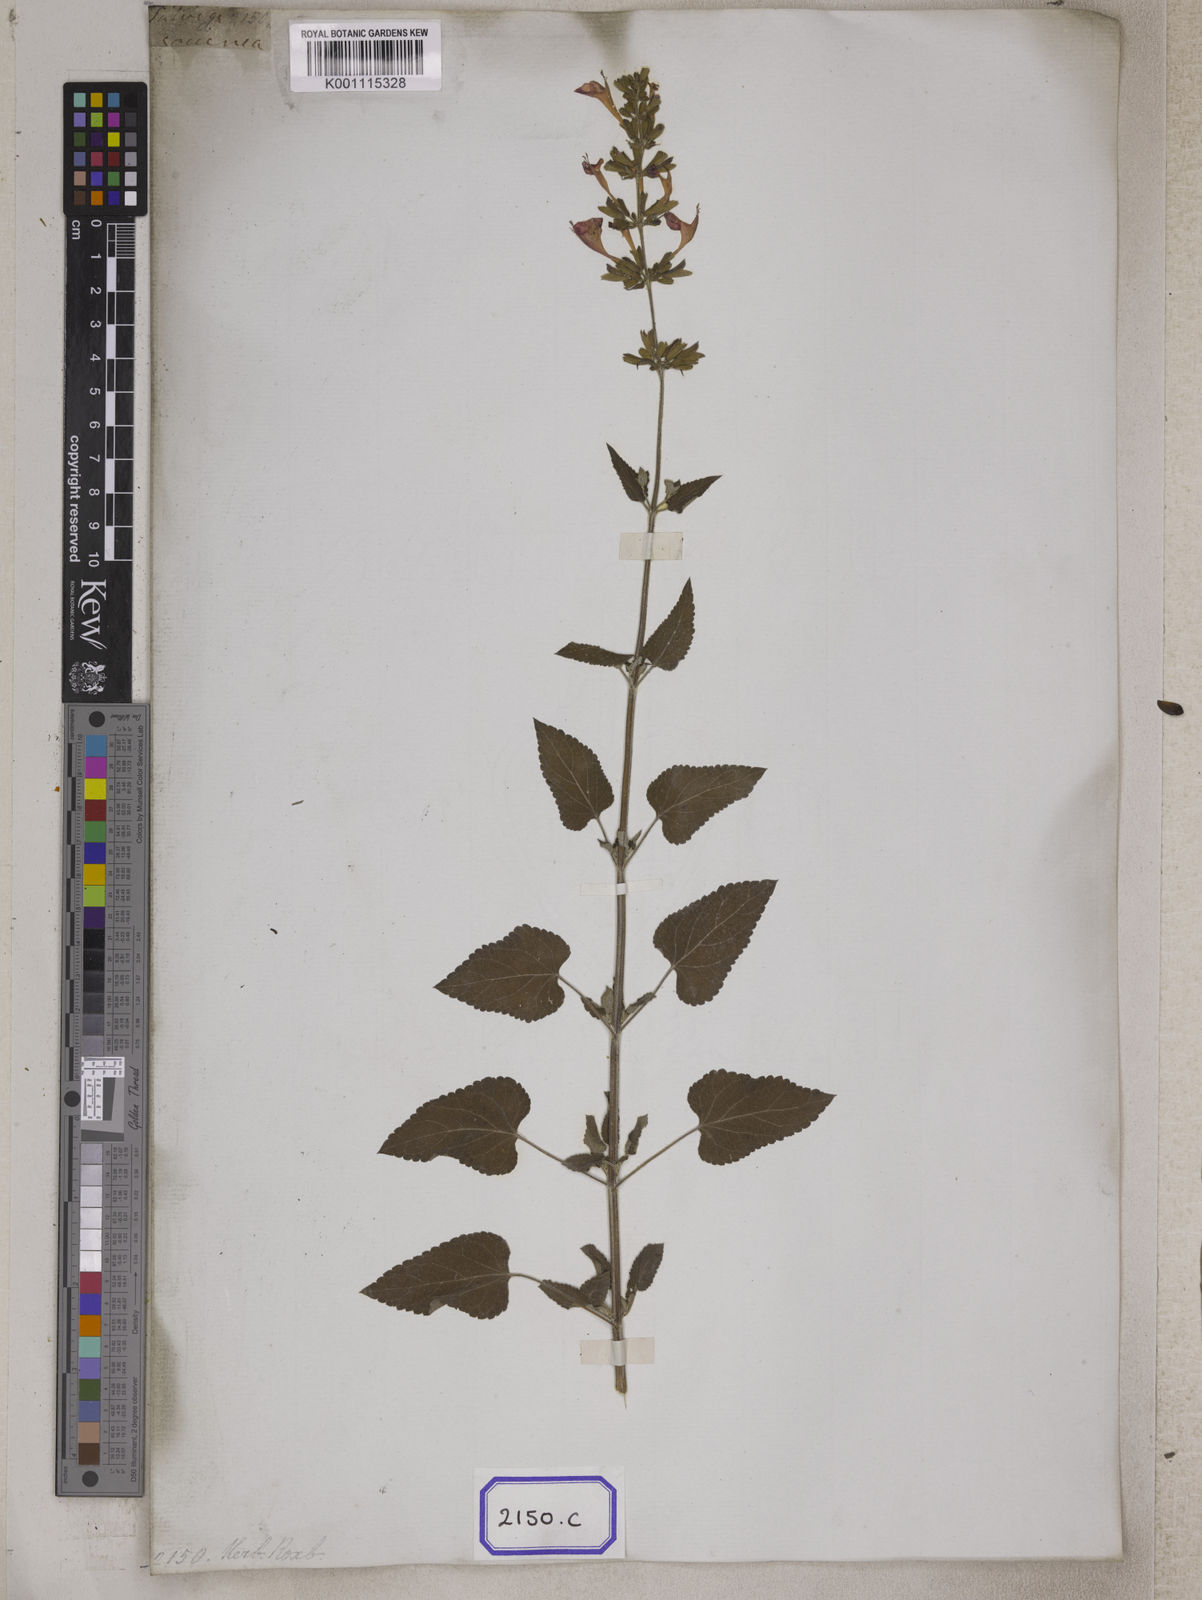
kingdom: Plantae
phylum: Tracheophyta
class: Magnoliopsida
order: Lamiales
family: Lamiaceae
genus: Salvia
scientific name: Salvia coccinea
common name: Blood sage
